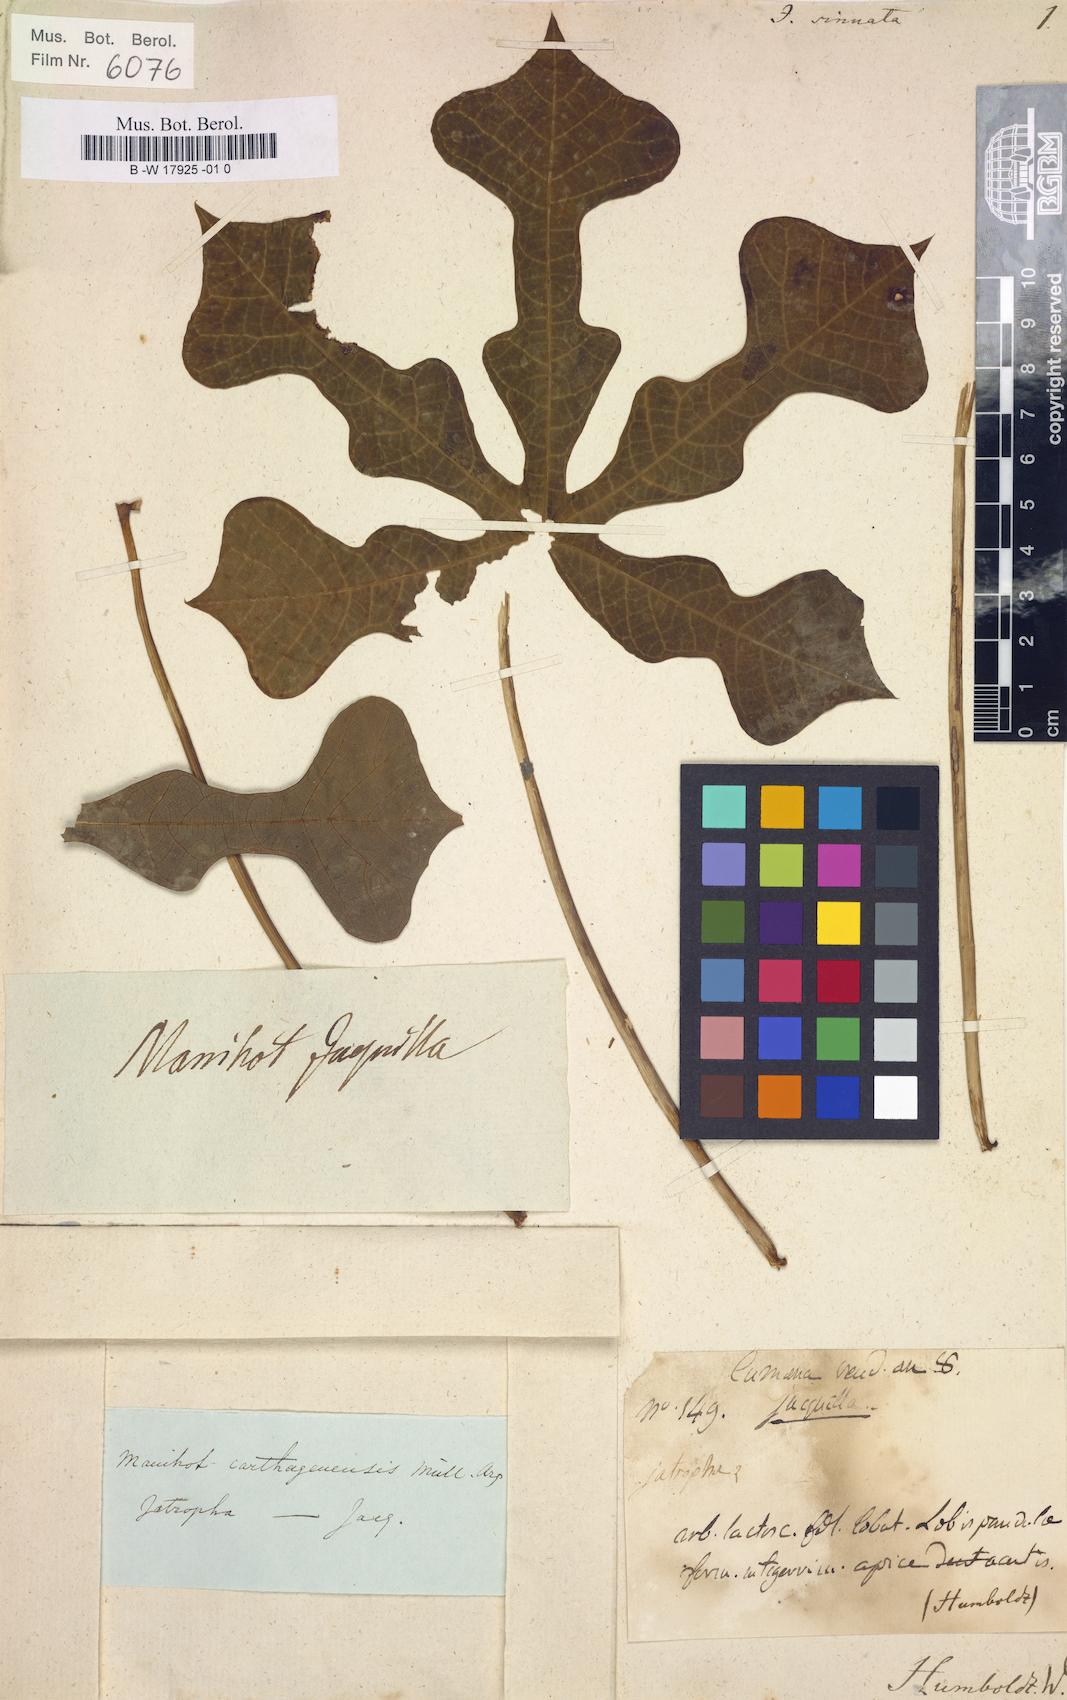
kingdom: Plantae
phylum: Tracheophyta
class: Magnoliopsida
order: Malpighiales
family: Euphorbiaceae
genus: Manihot
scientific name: Manihot tripartita
